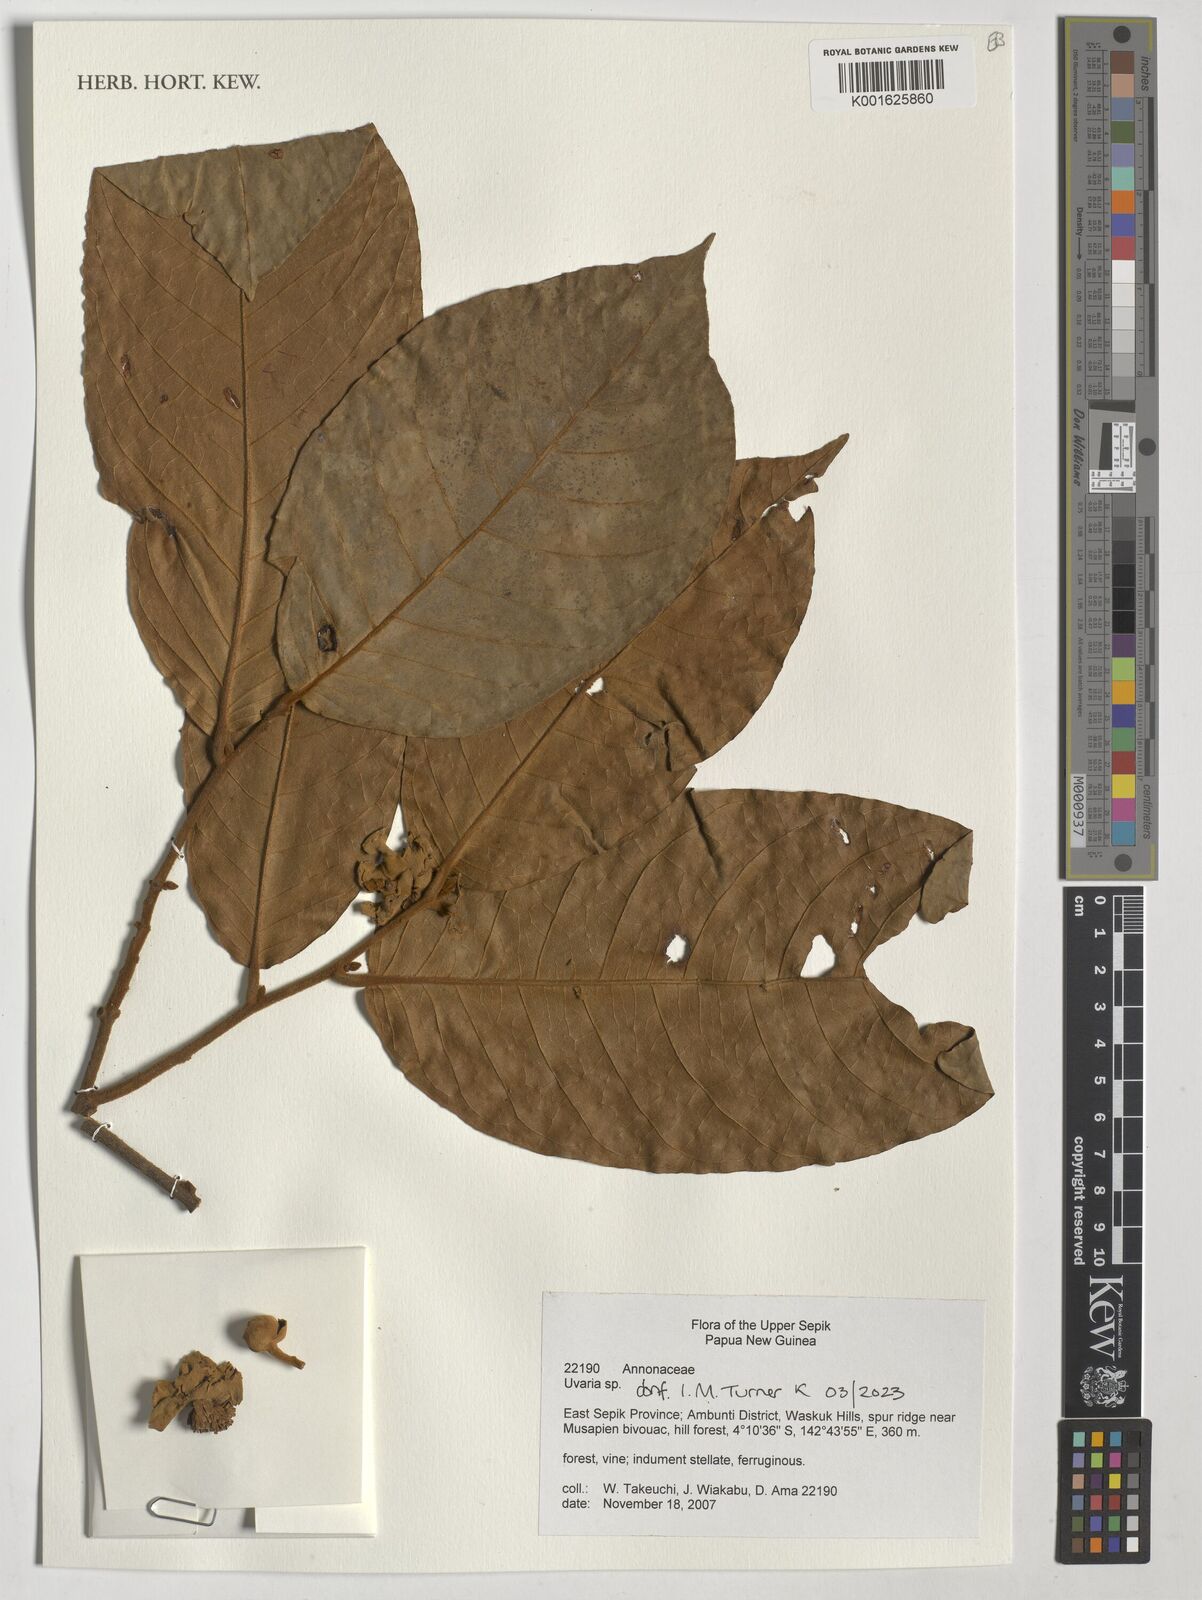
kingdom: Plantae
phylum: Tracheophyta
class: Magnoliopsida
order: Magnoliales
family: Annonaceae
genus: Uvaria
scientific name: Uvaria
